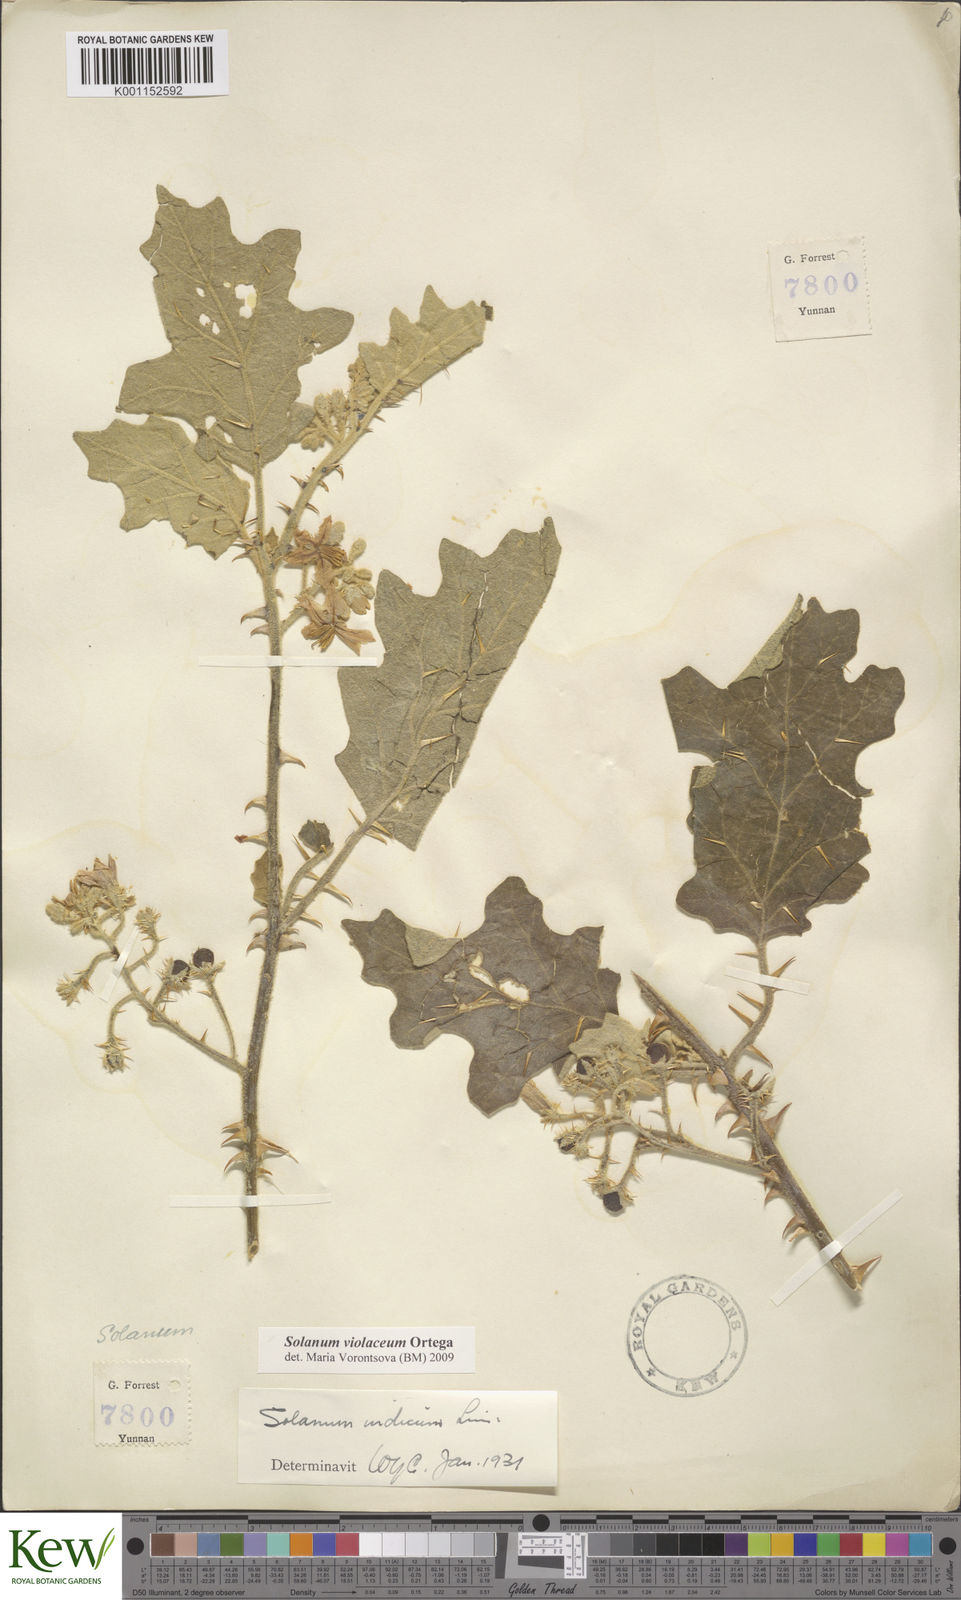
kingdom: Plantae
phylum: Tracheophyta
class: Magnoliopsida
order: Solanales
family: Solanaceae
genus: Solanum
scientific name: Solanum violaceum
